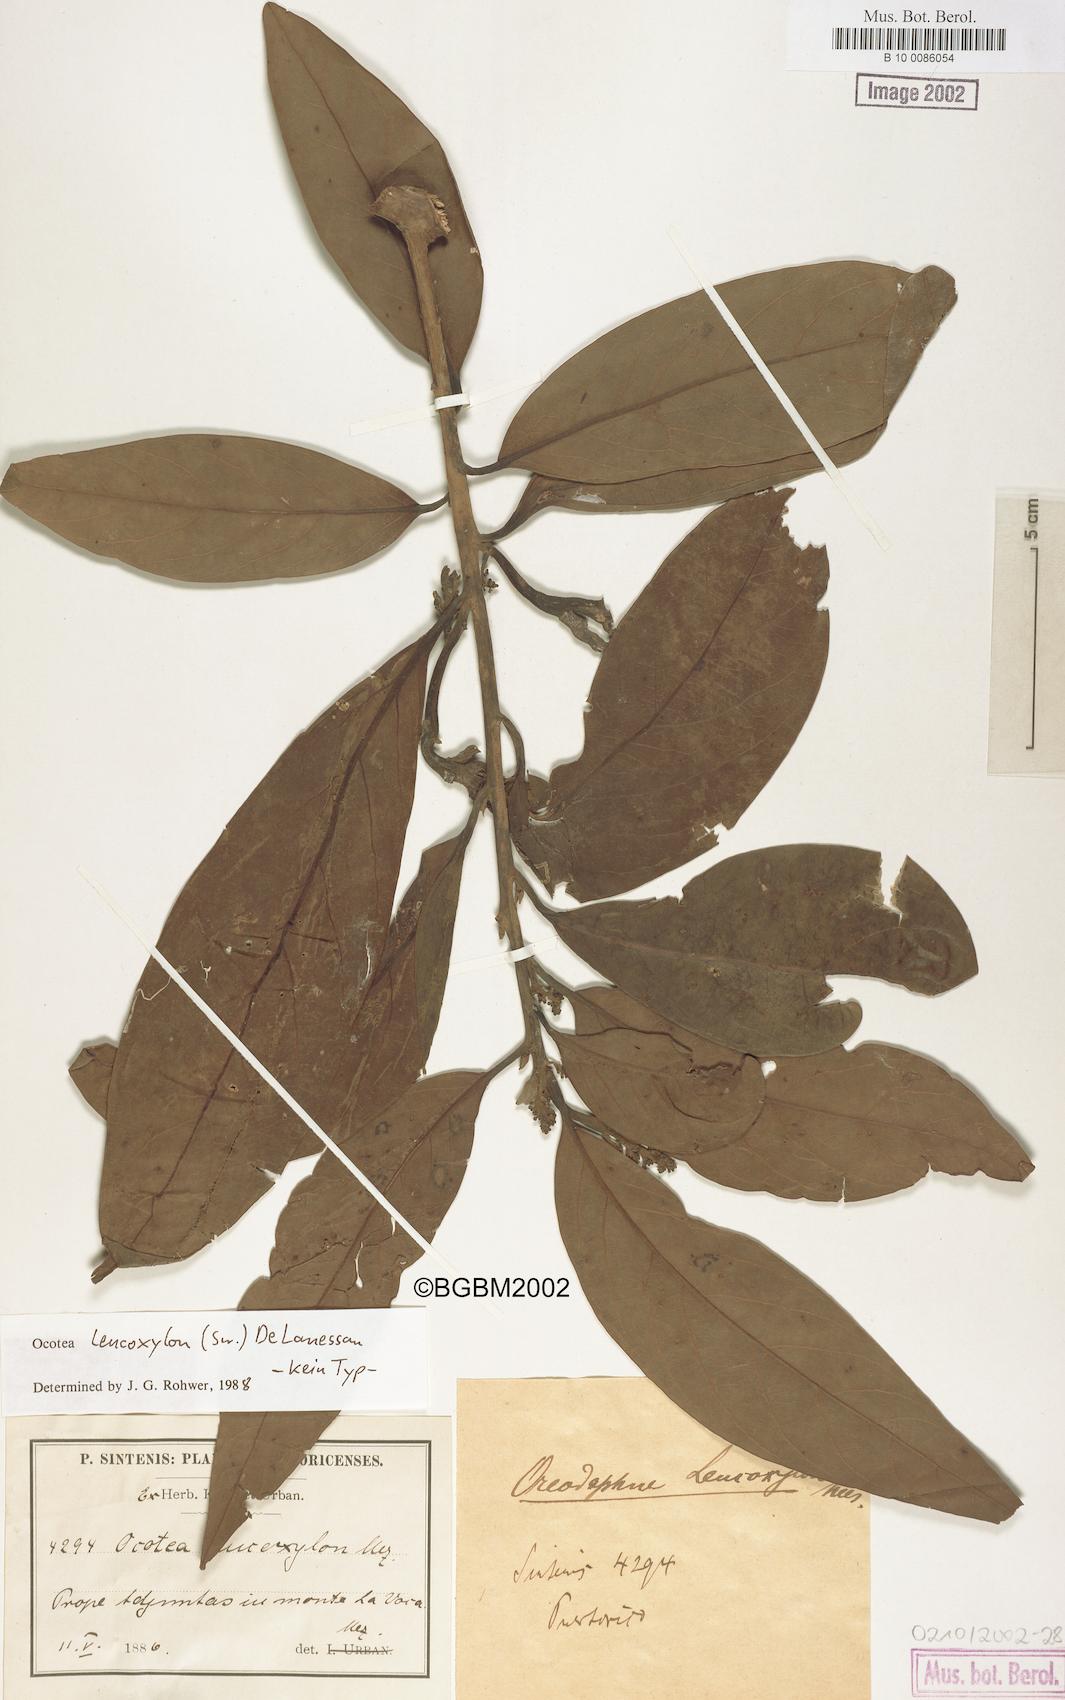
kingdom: Plantae
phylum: Tracheophyta
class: Magnoliopsida
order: Laurales
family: Lauraceae
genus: Ocotea
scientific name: Ocotea leucoxylon
